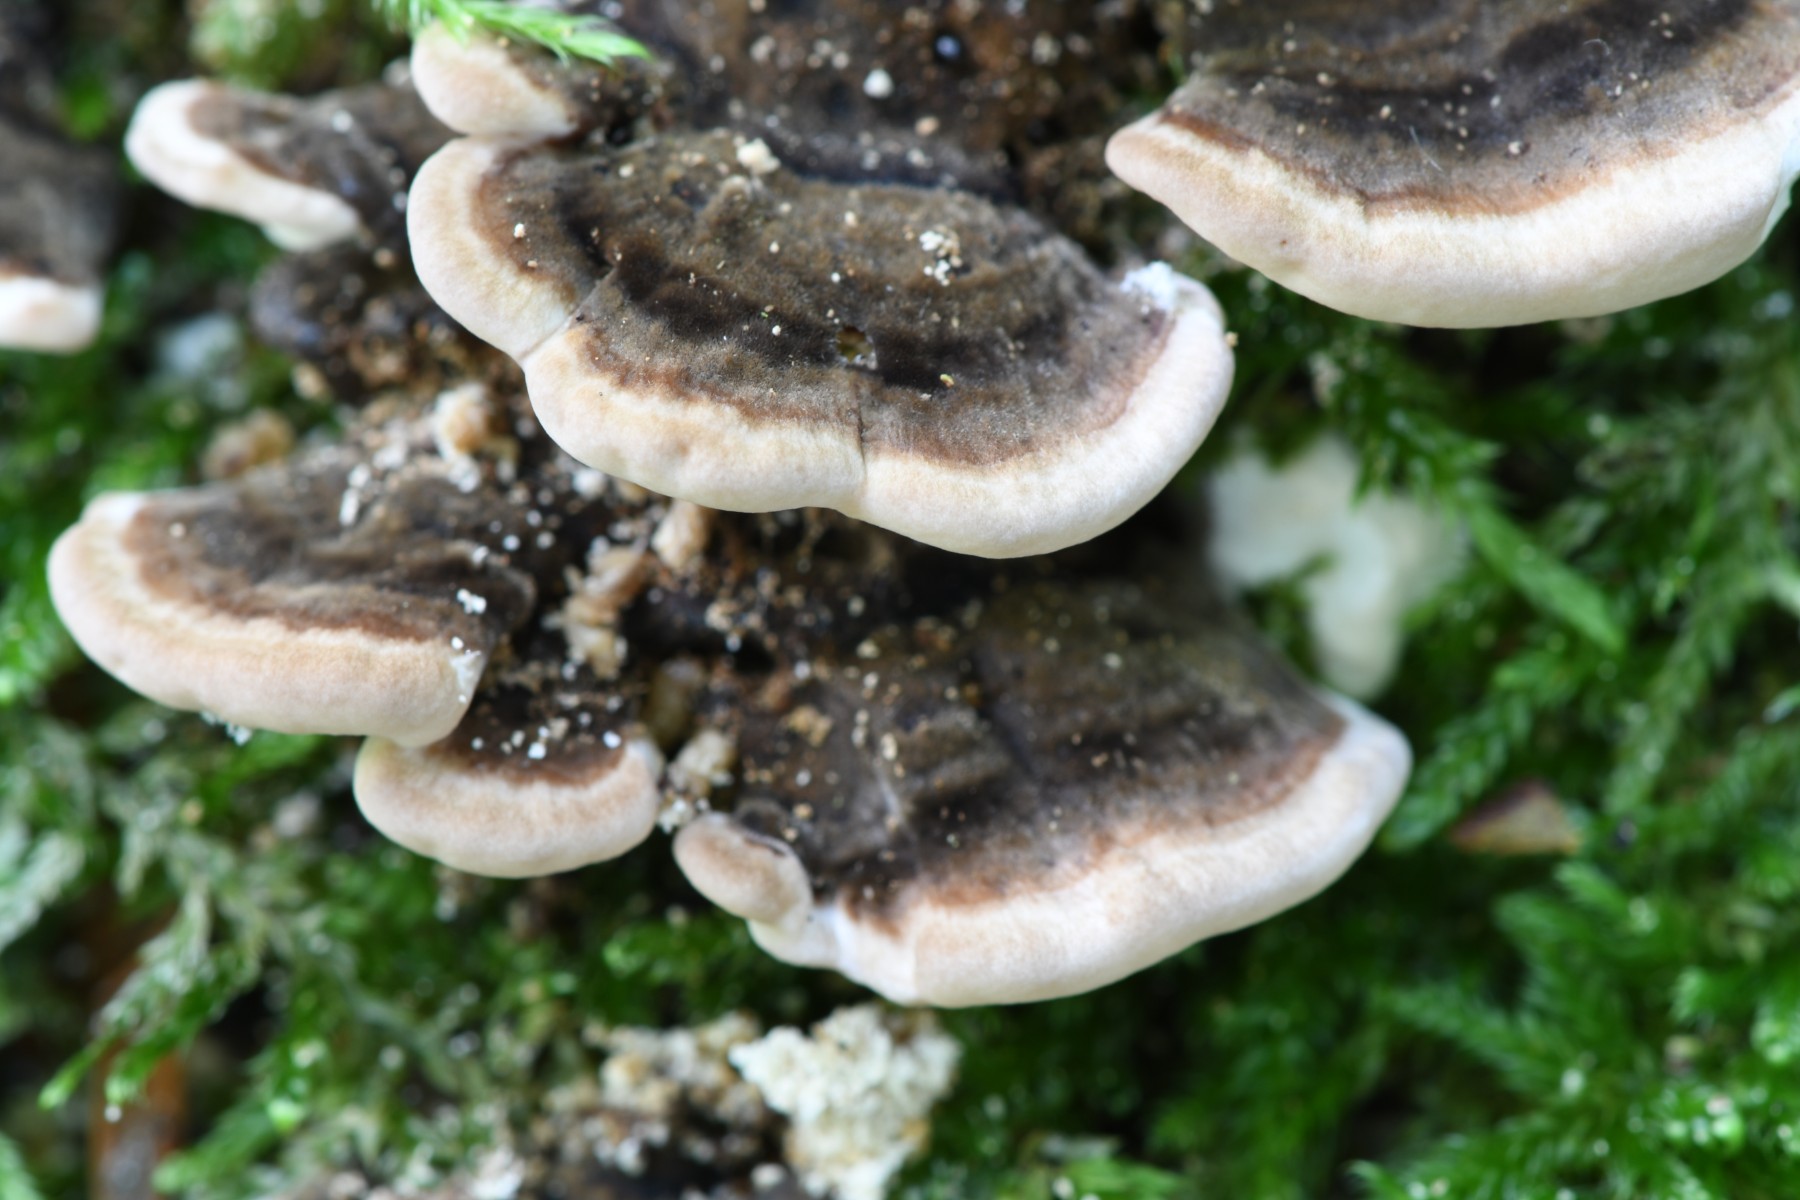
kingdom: Fungi
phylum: Basidiomycota
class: Agaricomycetes
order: Polyporales
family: Polyporaceae
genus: Trametes
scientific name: Trametes versicolor
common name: broget læderporesvamp
